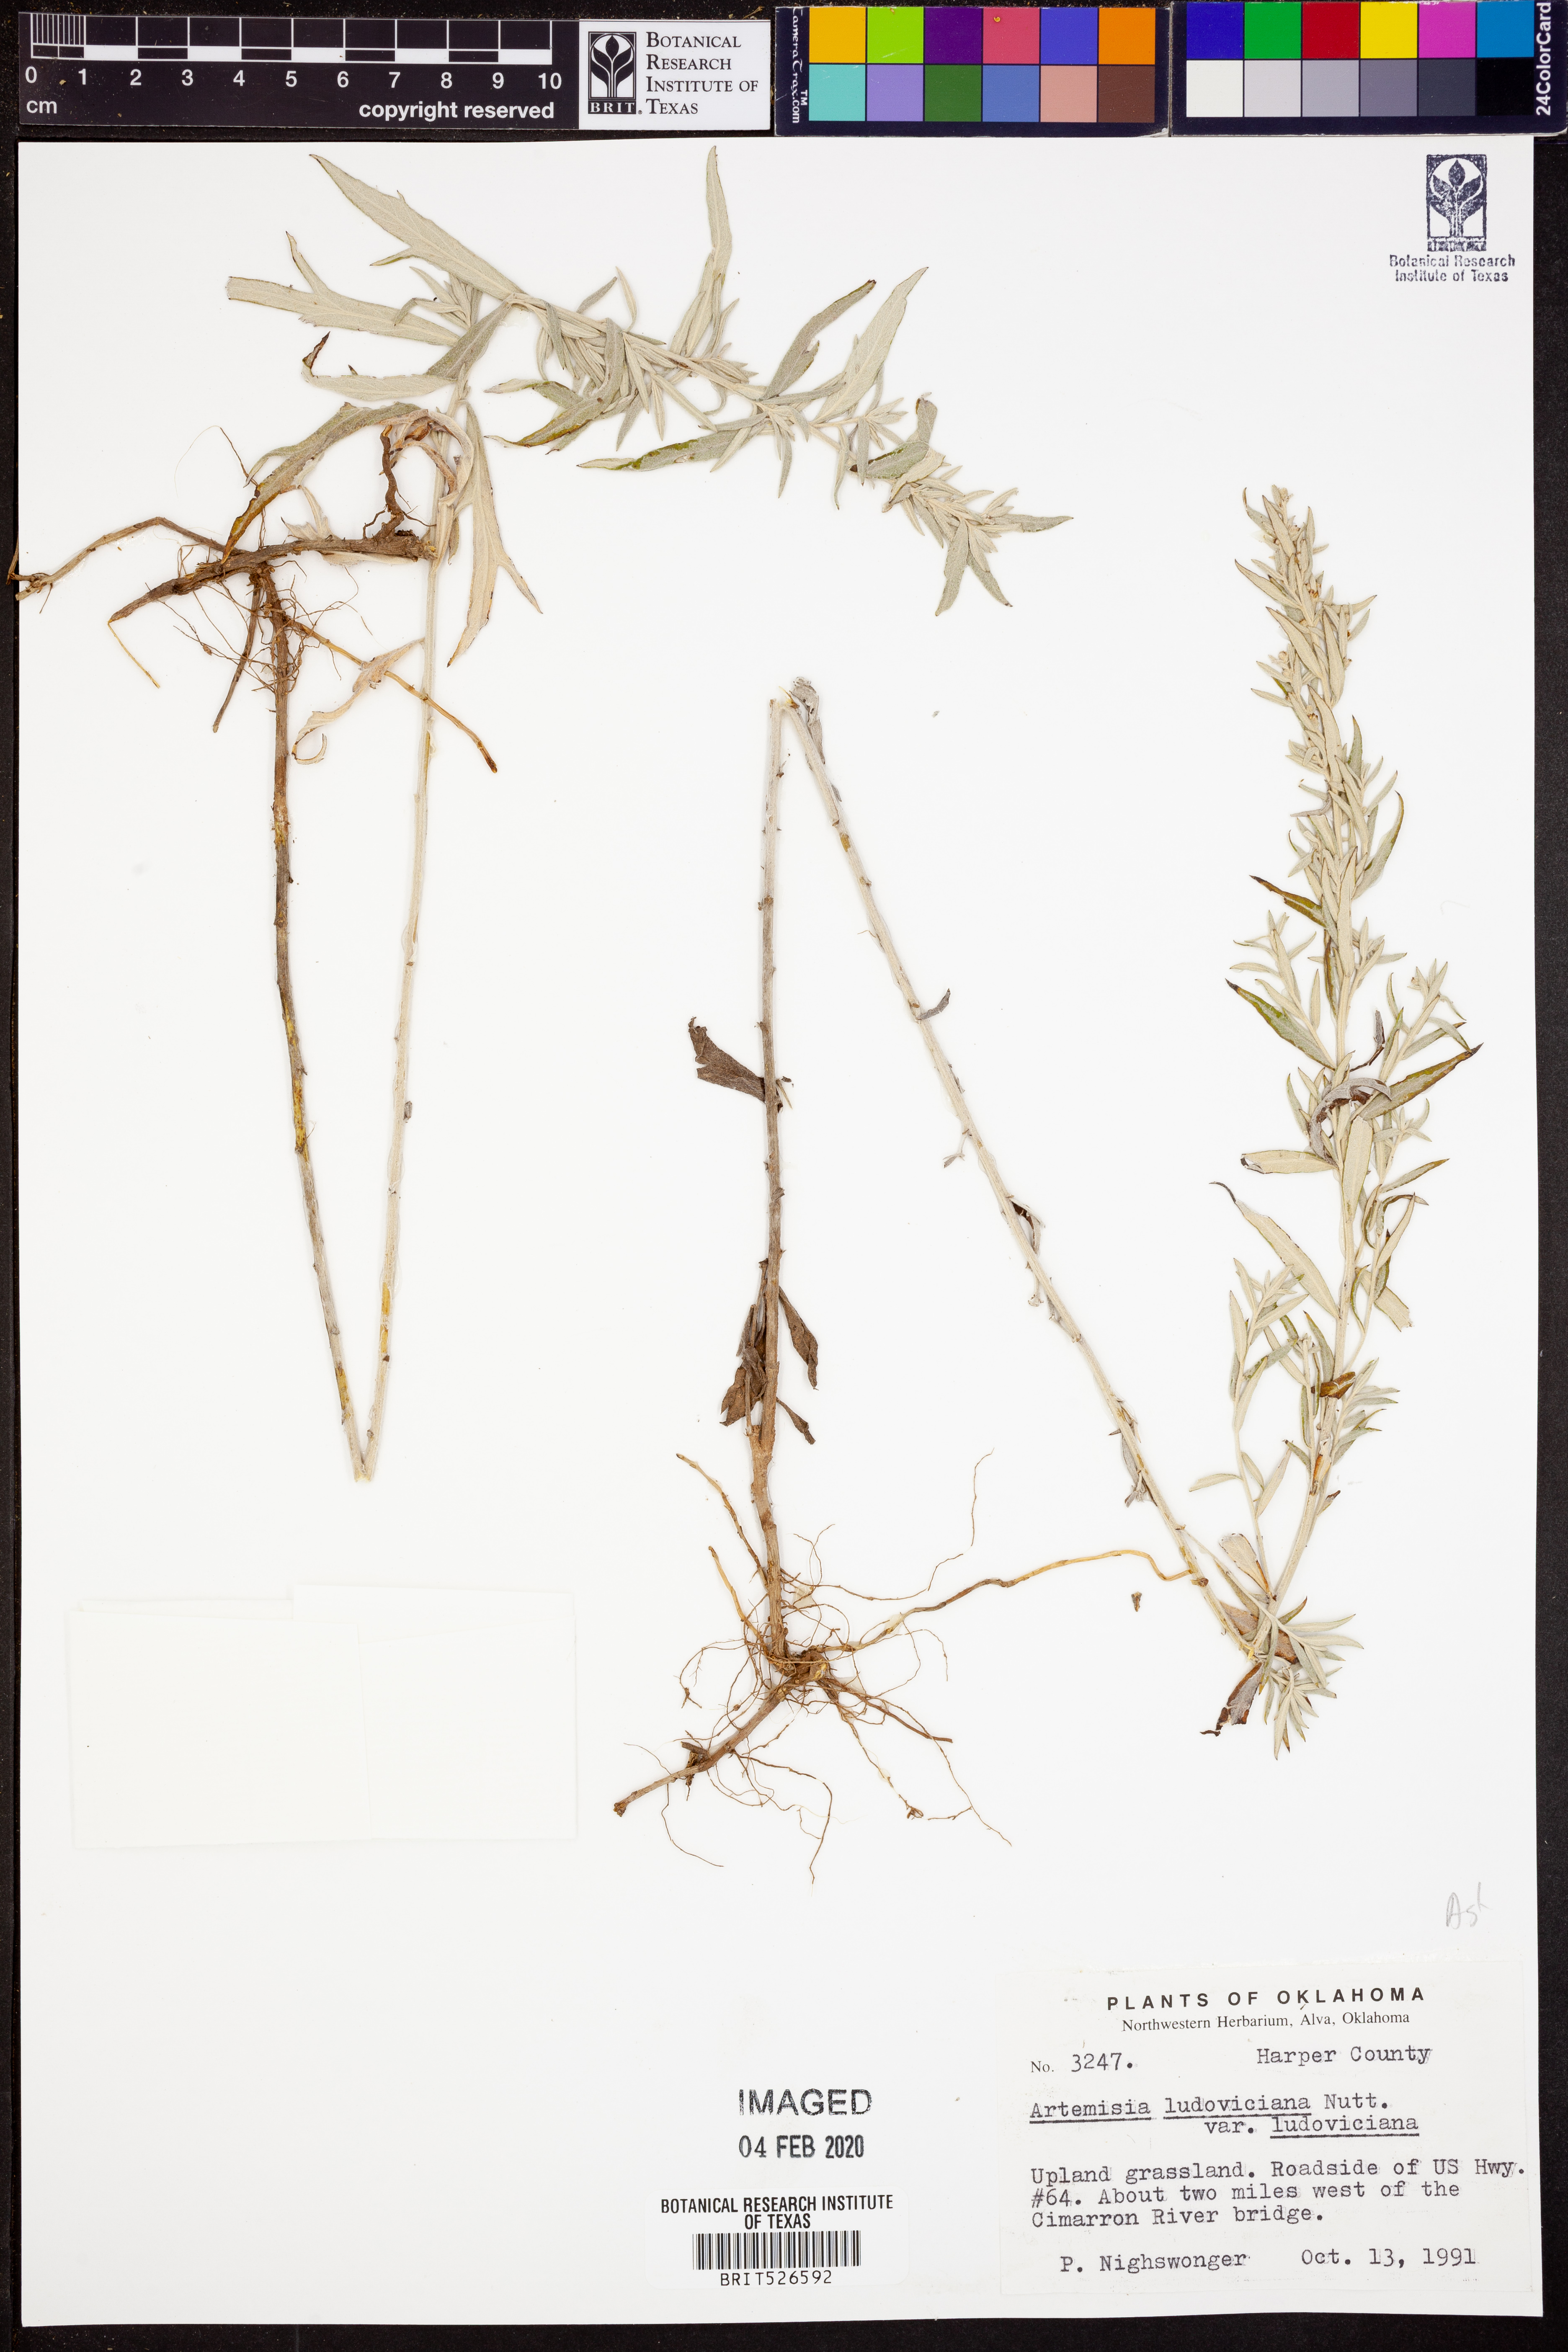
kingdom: Plantae
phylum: Tracheophyta
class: Magnoliopsida
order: Asterales
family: Asteraceae
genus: Artemisia
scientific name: Artemisia ludoviciana
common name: Western mugwort
